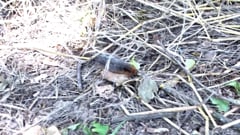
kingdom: Animalia
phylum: Arthropoda
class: Insecta
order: Lepidoptera
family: Erebidae
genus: Arctia
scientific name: Arctia caja
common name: Garden tiger
